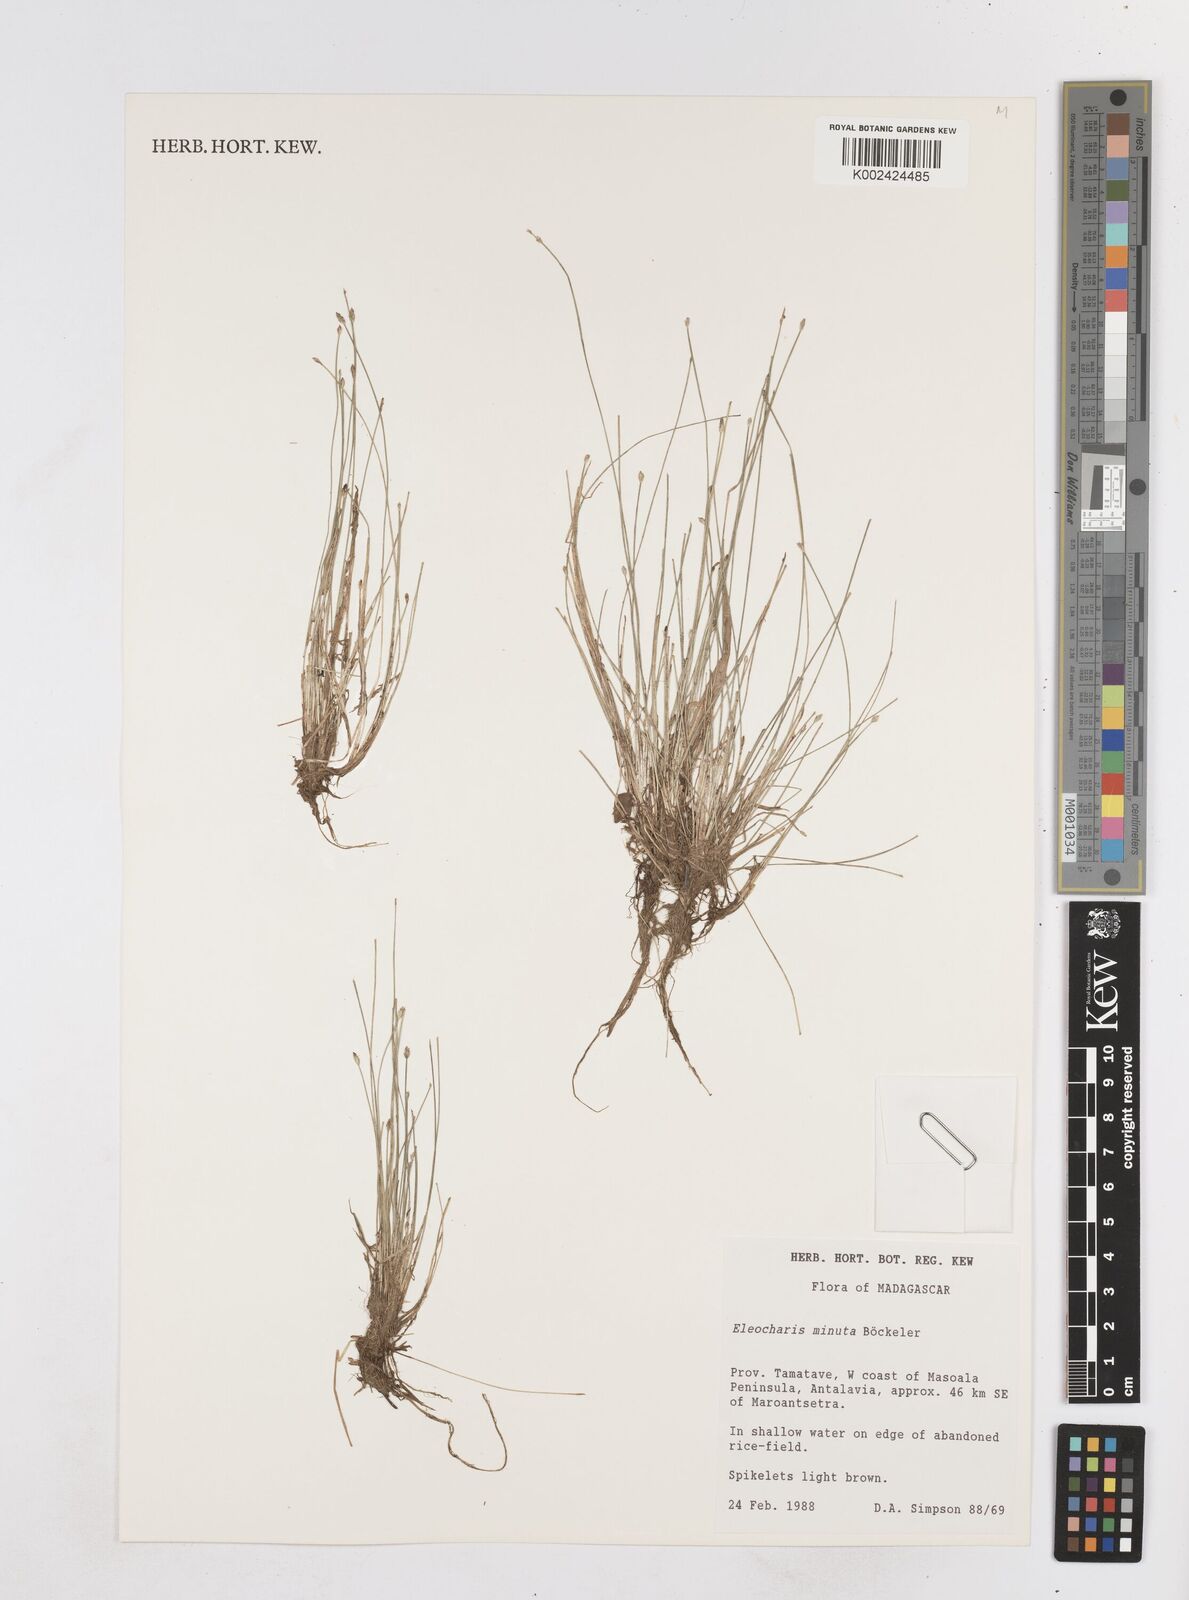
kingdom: Plantae
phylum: Tracheophyta
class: Liliopsida
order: Poales
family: Cyperaceae
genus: Eleocharis
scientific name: Eleocharis minuta
